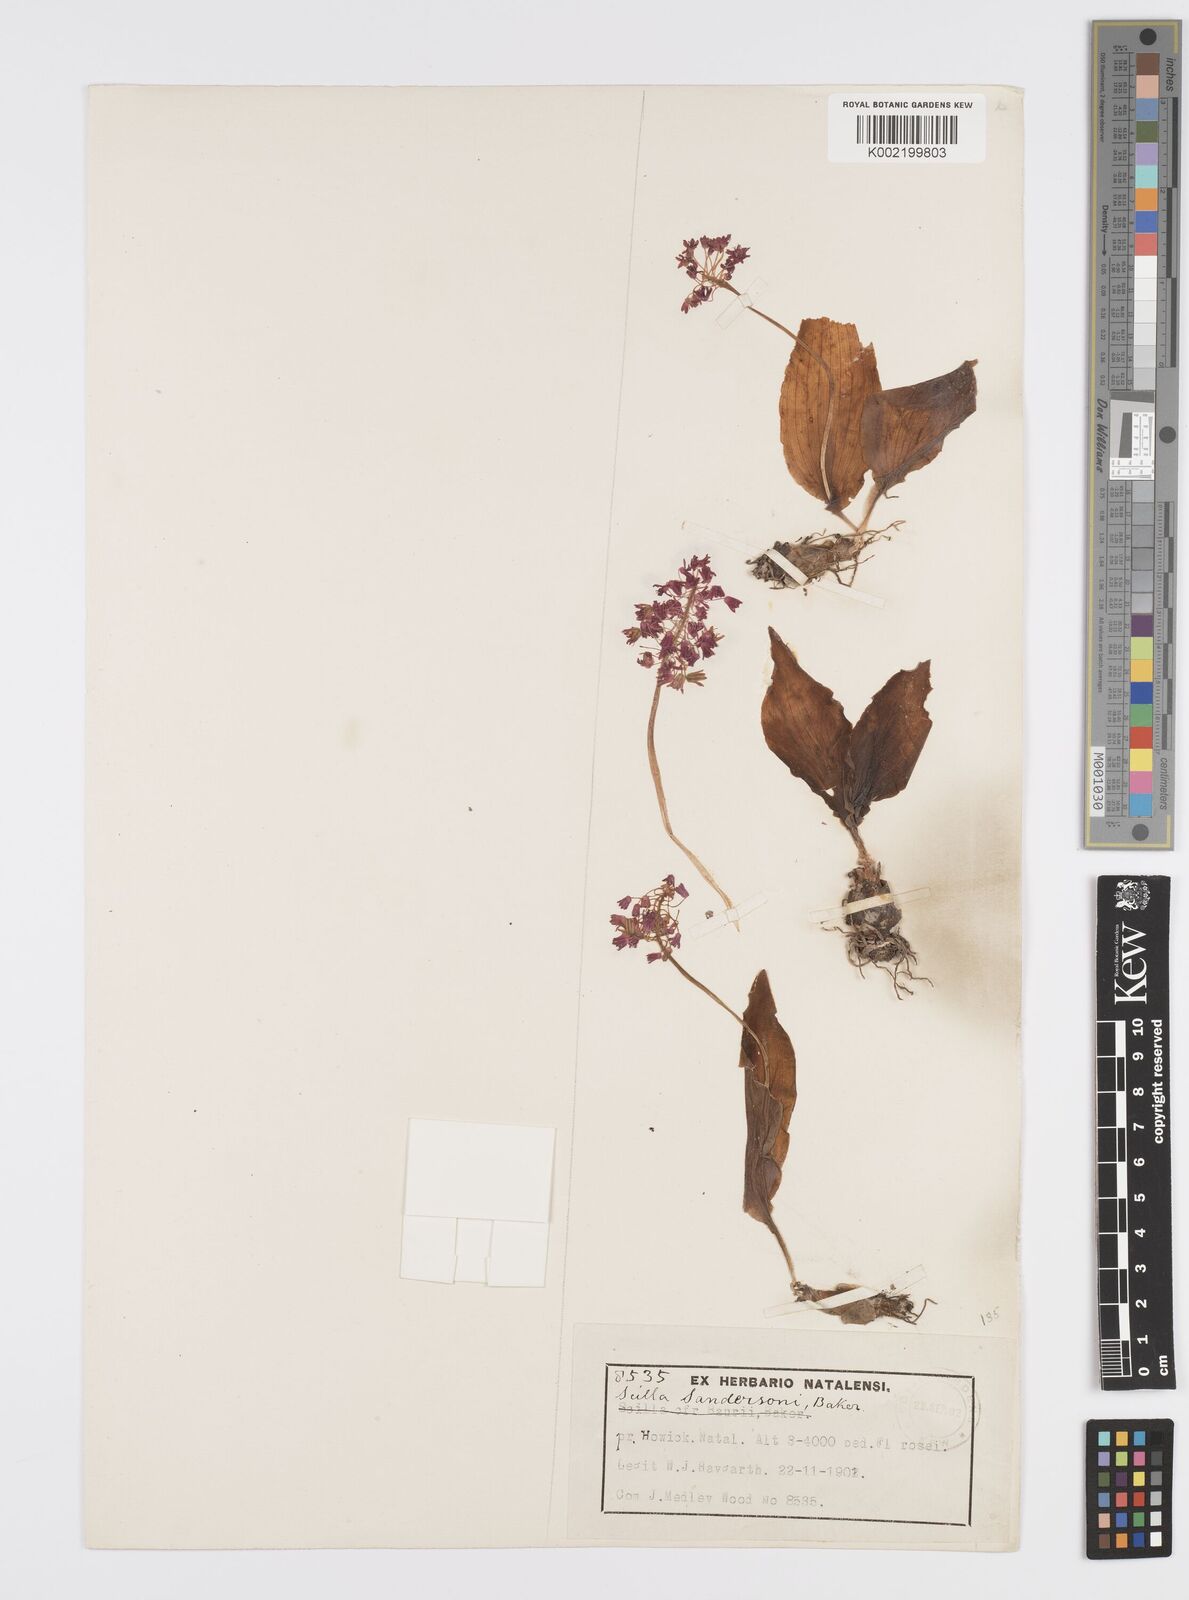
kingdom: Plantae
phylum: Tracheophyta
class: Liliopsida
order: Asparagales
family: Asparagaceae
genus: Ledebouria
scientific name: Ledebouria cooperi
